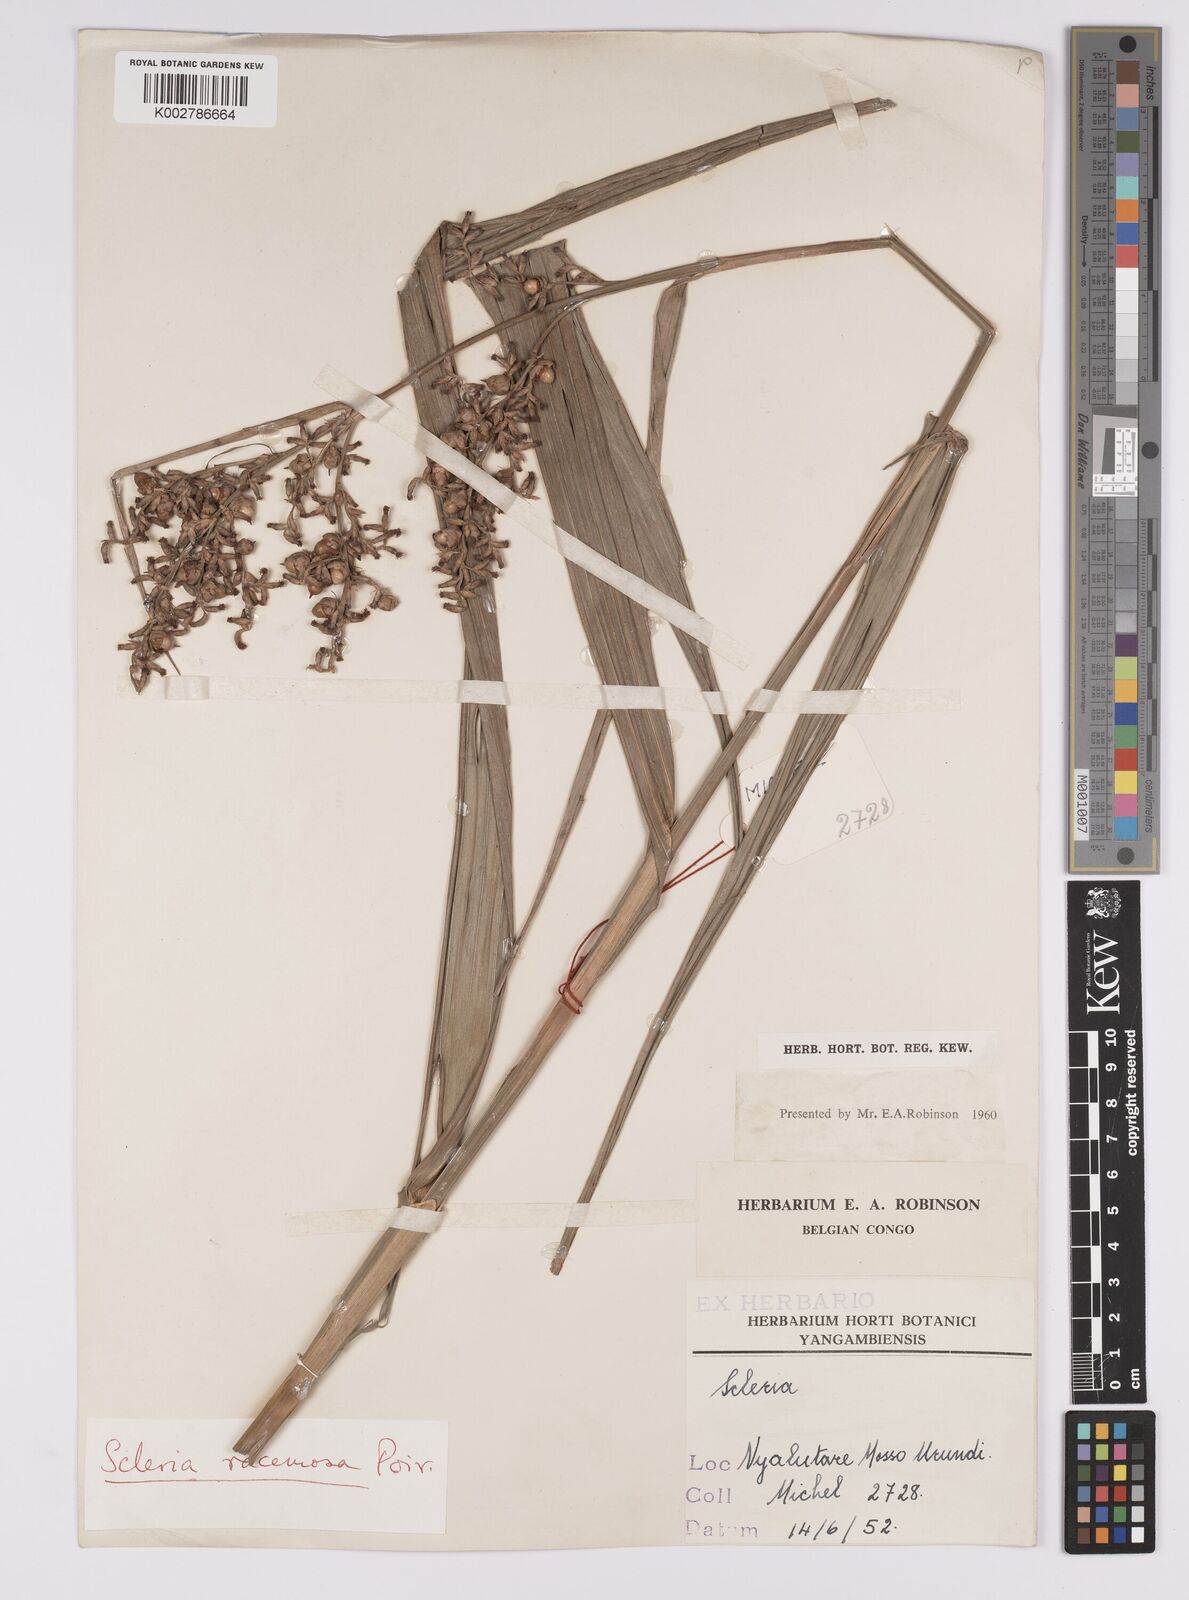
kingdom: Plantae
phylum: Tracheophyta
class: Liliopsida
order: Poales
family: Cyperaceae
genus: Scleria
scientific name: Scleria racemosa
